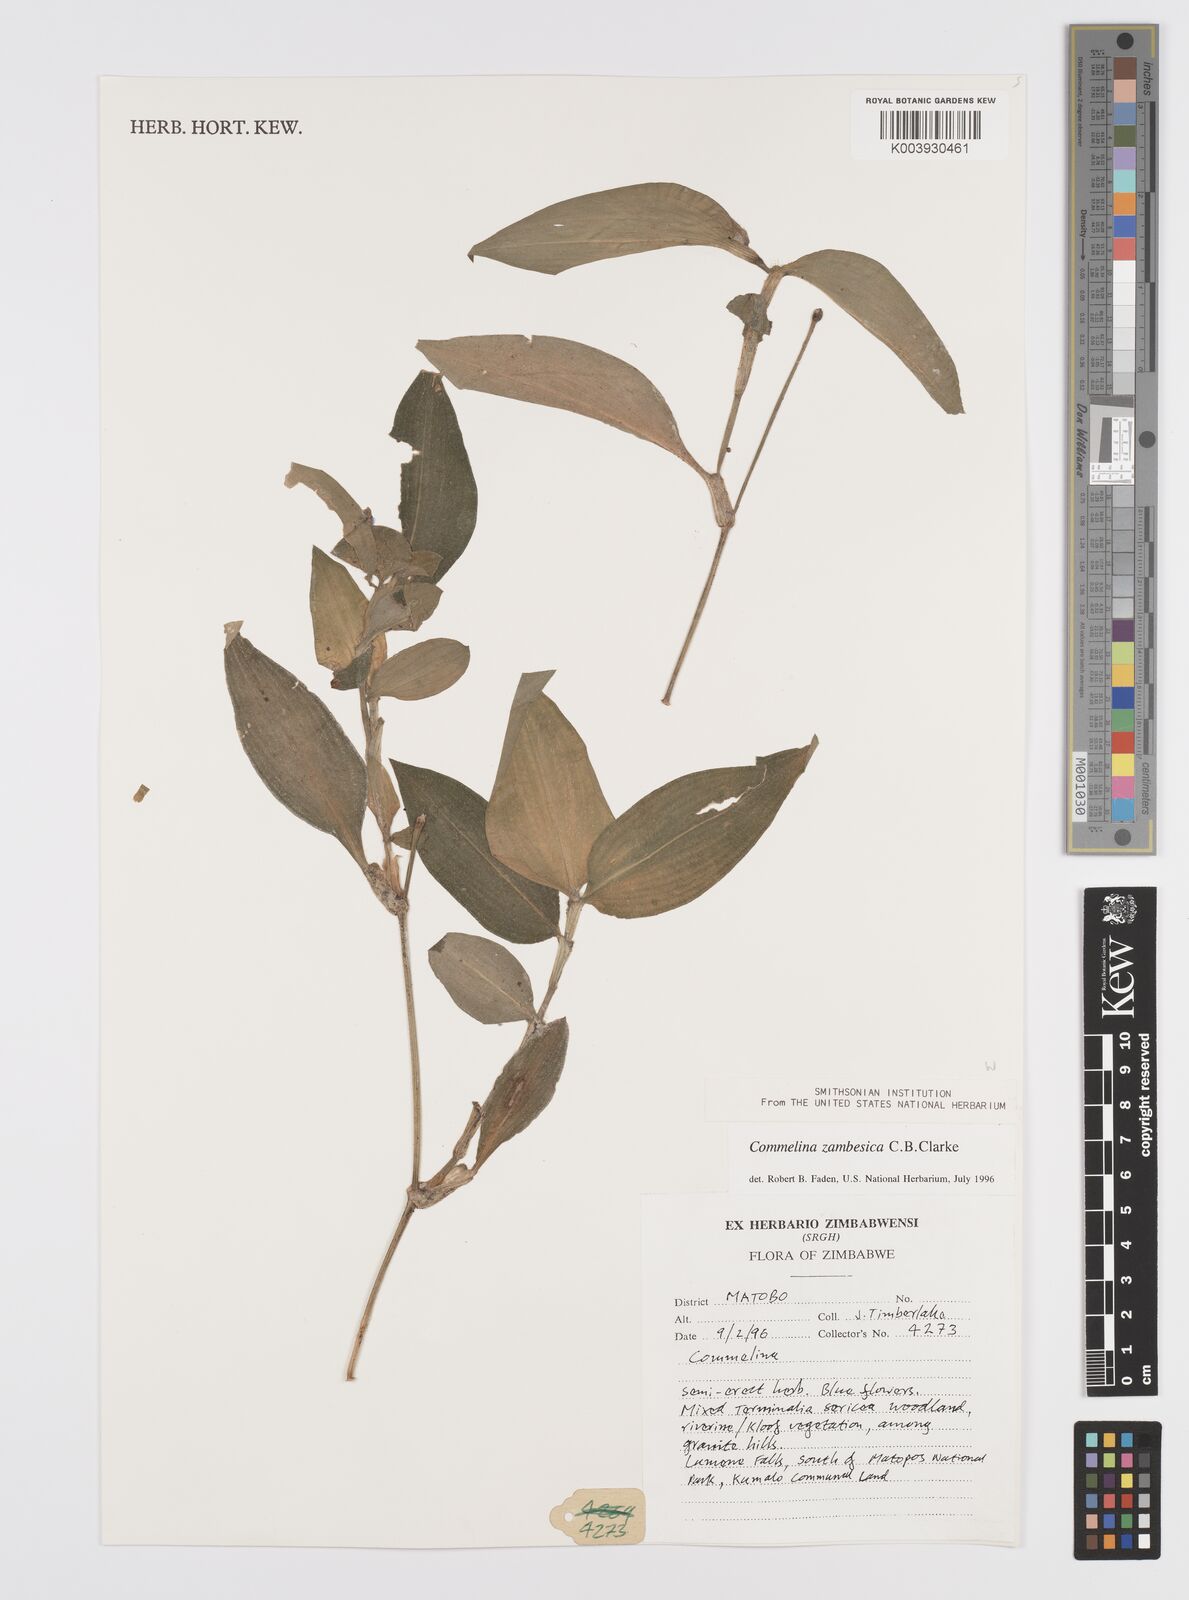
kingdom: Plantae
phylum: Tracheophyta
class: Liliopsida
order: Commelinales
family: Commelinaceae
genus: Commelina
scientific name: Commelina zambesica
